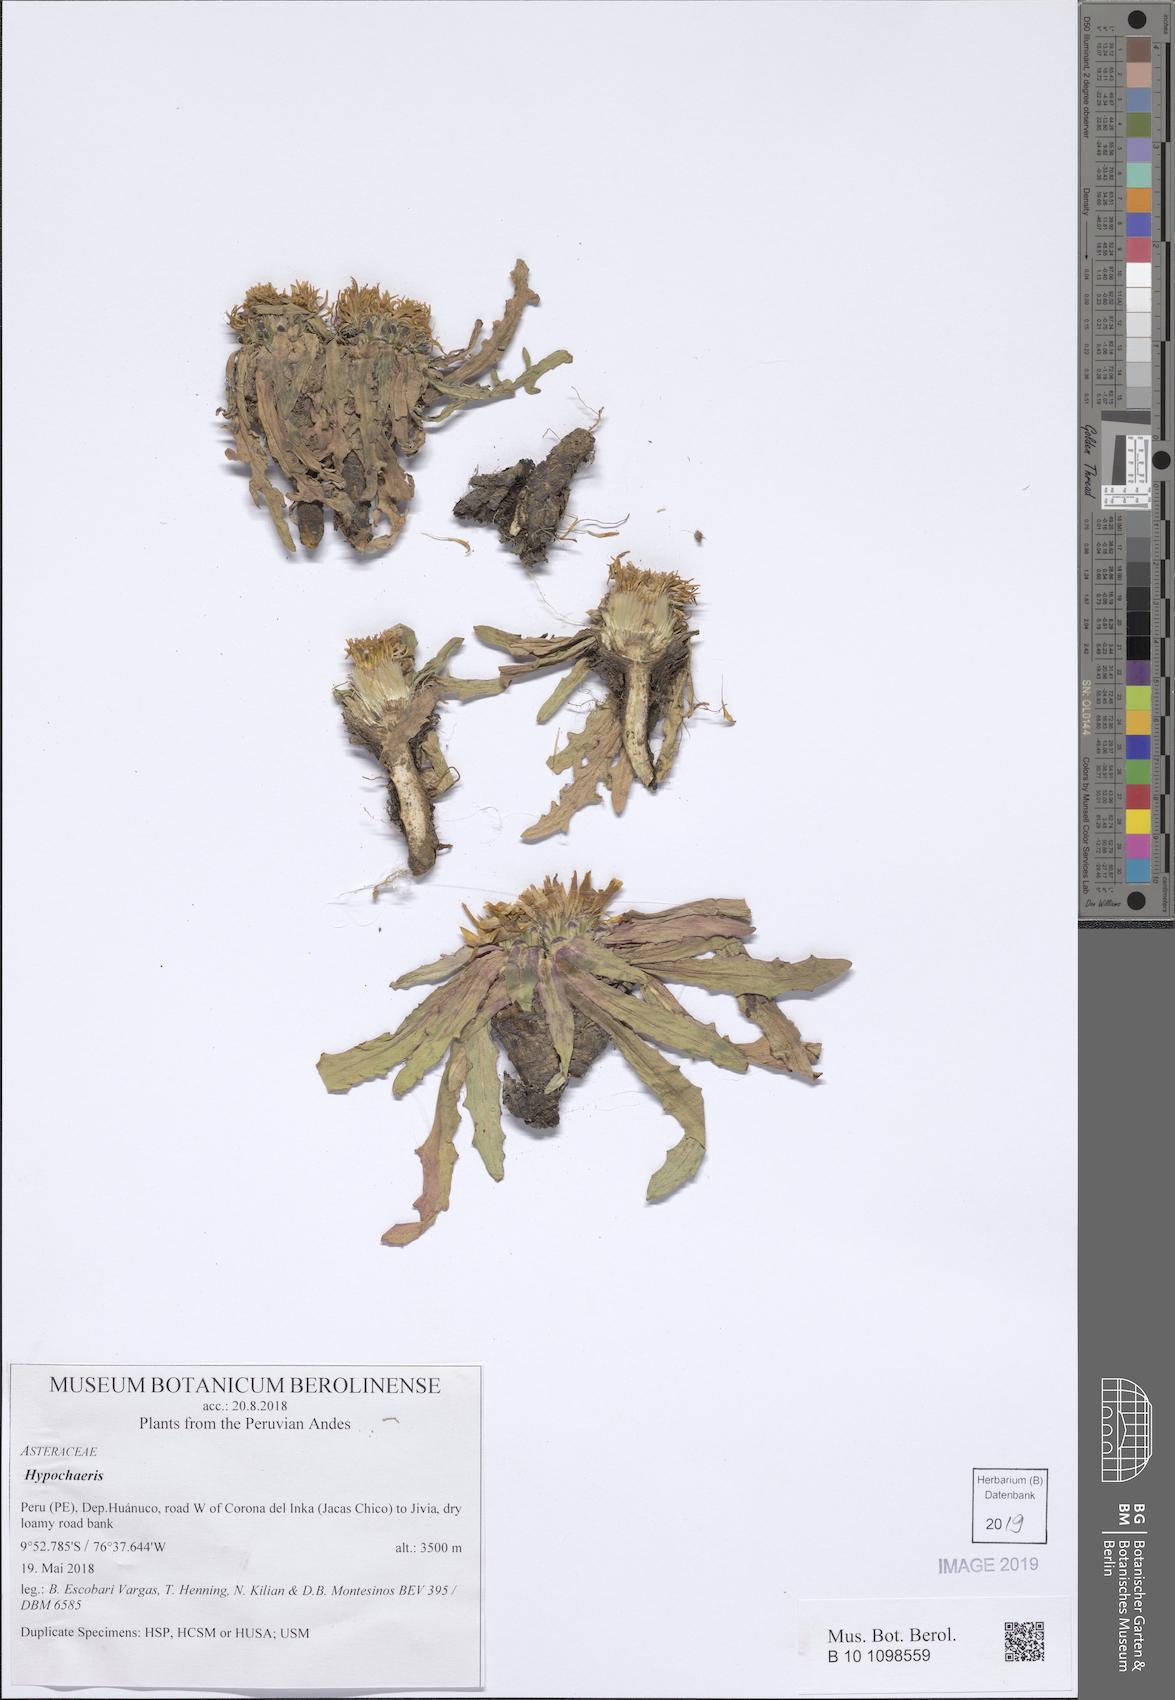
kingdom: Plantae
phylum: Tracheophyta
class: Magnoliopsida
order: Asterales
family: Asteraceae
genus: Hypochaeris
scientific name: Hypochaeris
